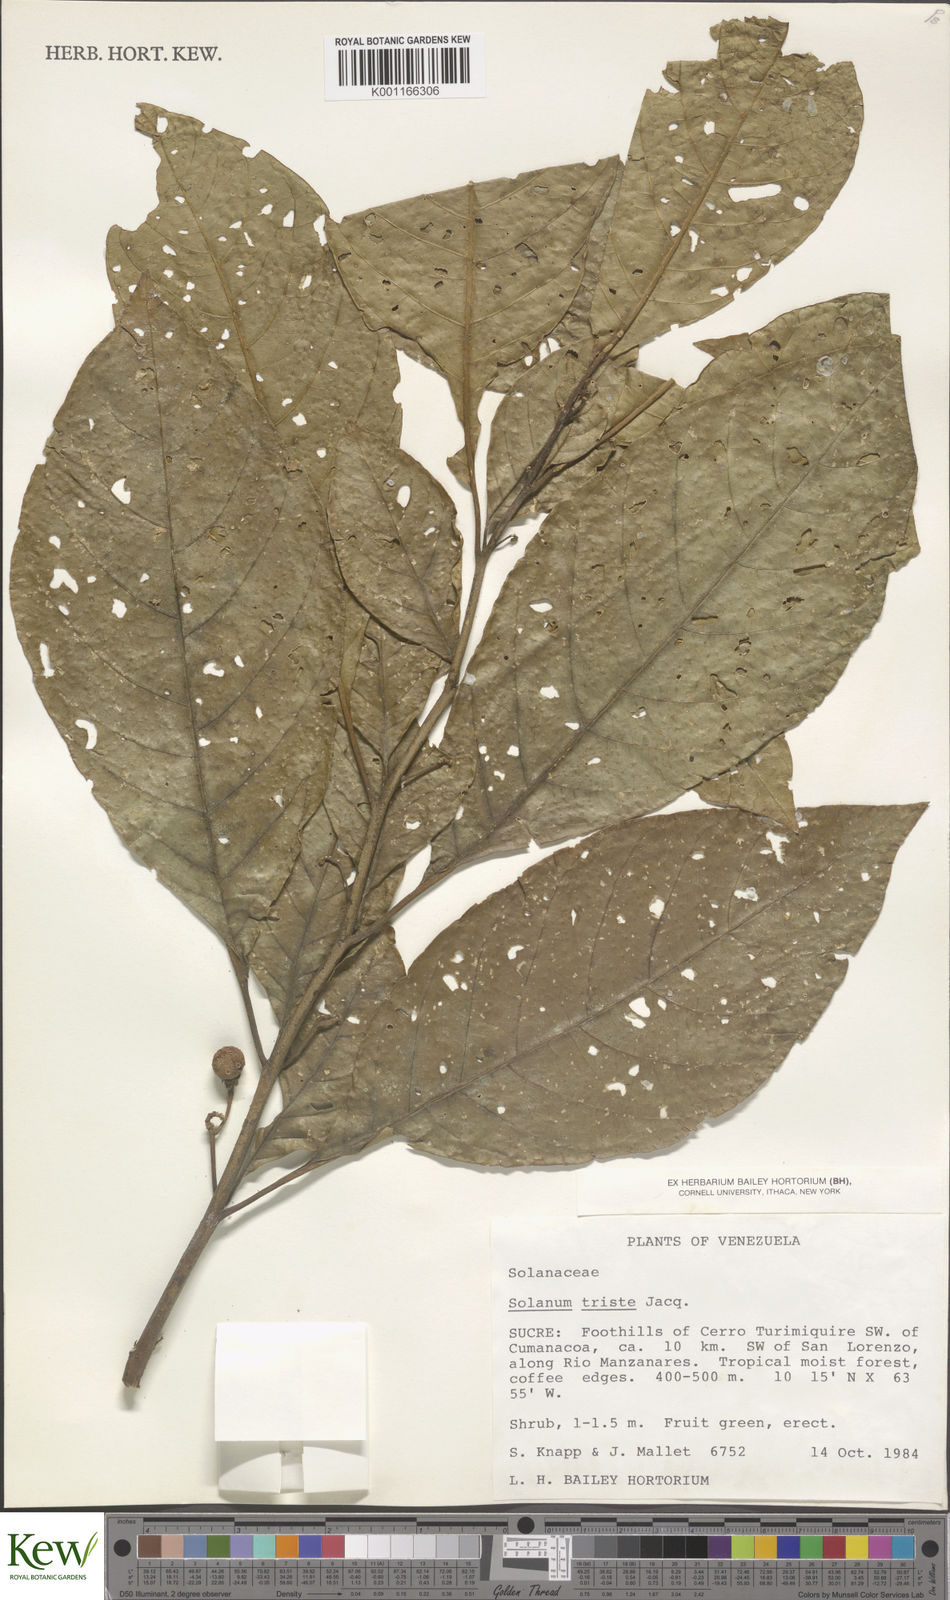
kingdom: Plantae
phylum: Tracheophyta
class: Magnoliopsida
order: Solanales
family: Solanaceae
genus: Solanum
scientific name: Solanum triste
